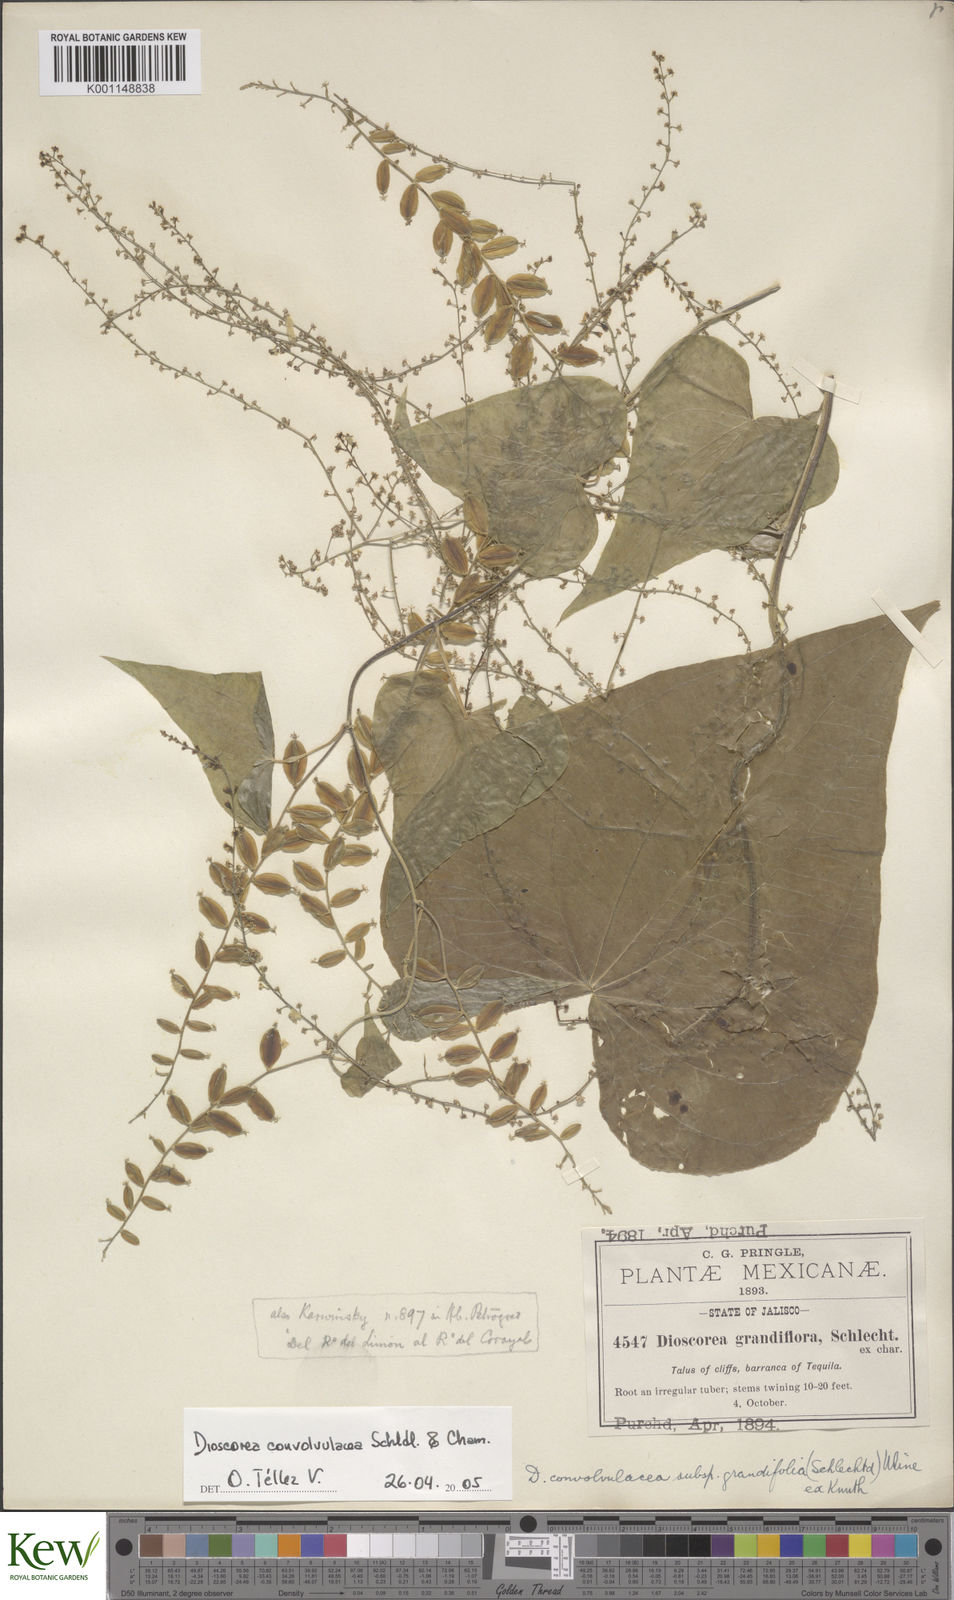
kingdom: Plantae
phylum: Tracheophyta
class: Liliopsida
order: Dioscoreales
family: Dioscoreaceae
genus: Dioscorea
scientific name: Dioscorea convolvulacea
